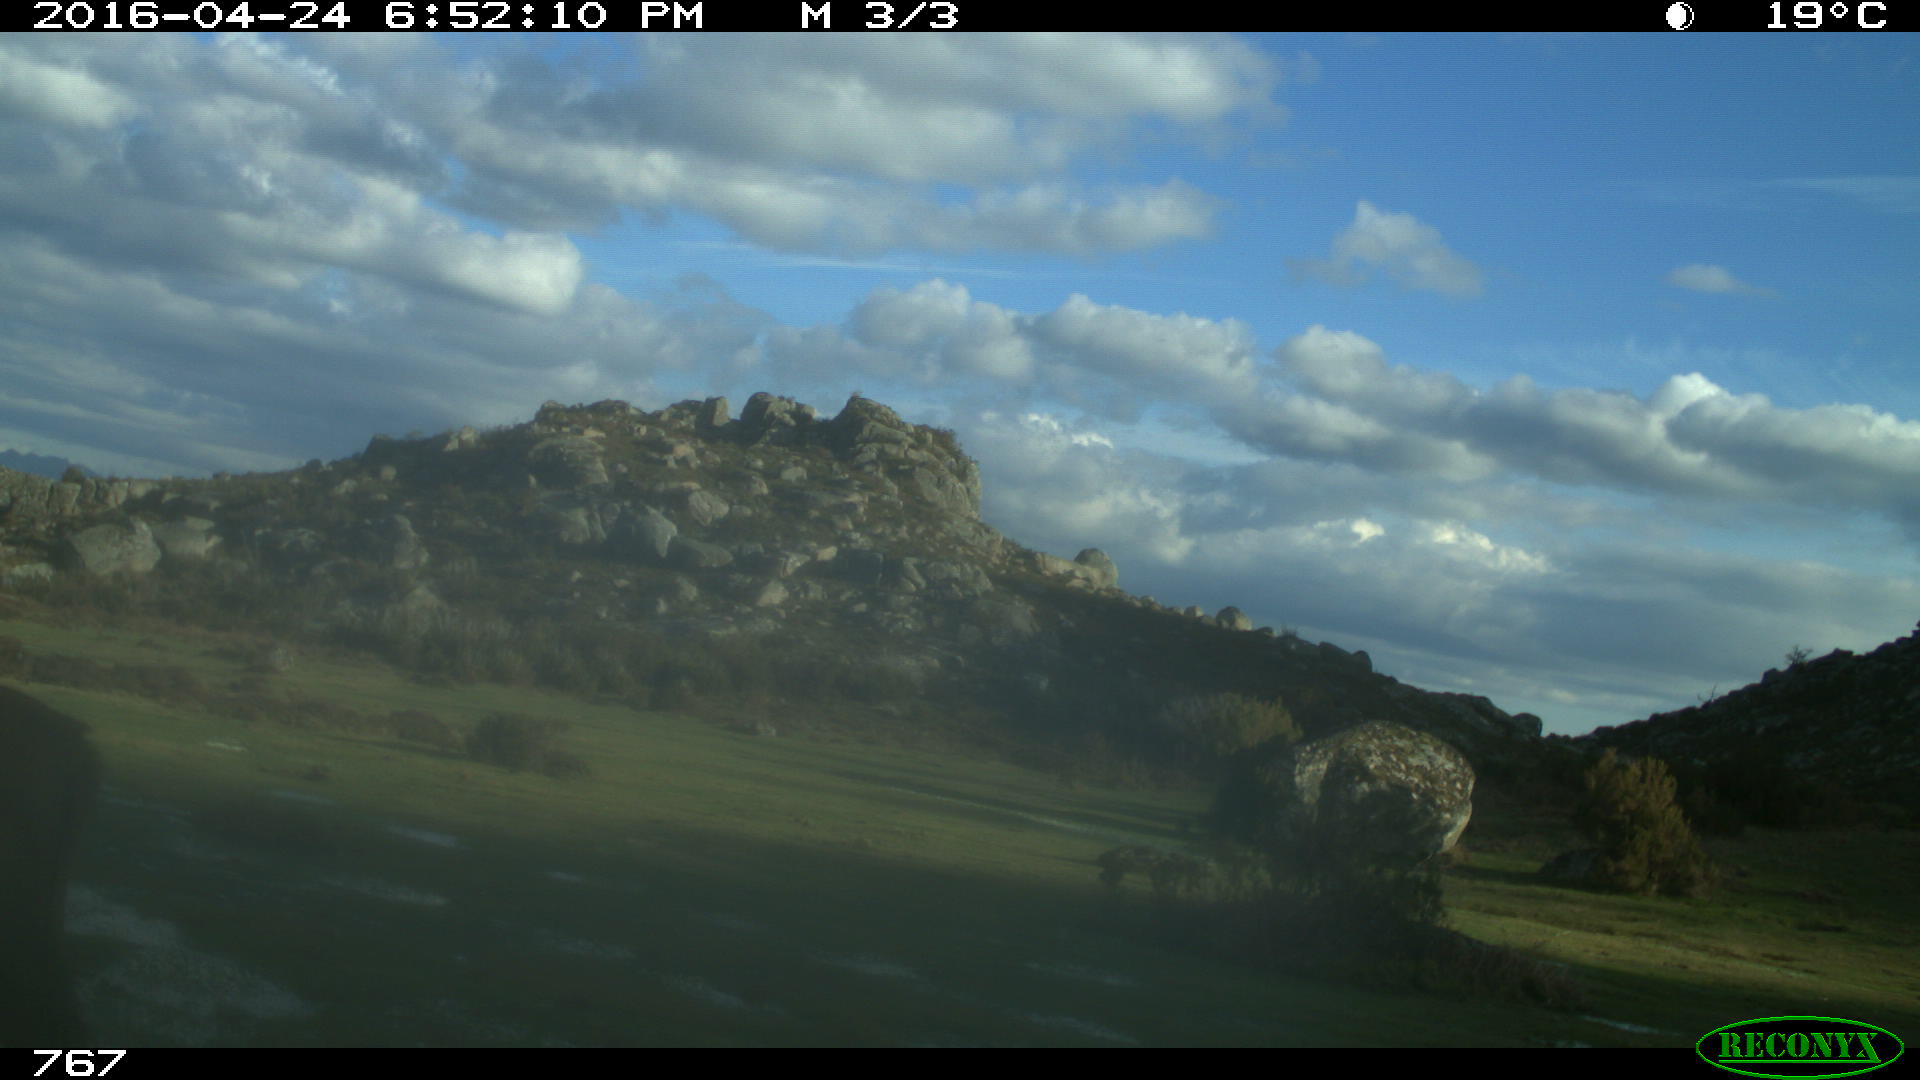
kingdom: Animalia
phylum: Chordata
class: Mammalia
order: Artiodactyla
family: Bovidae
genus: Bos
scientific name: Bos taurus
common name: Domesticated cattle
